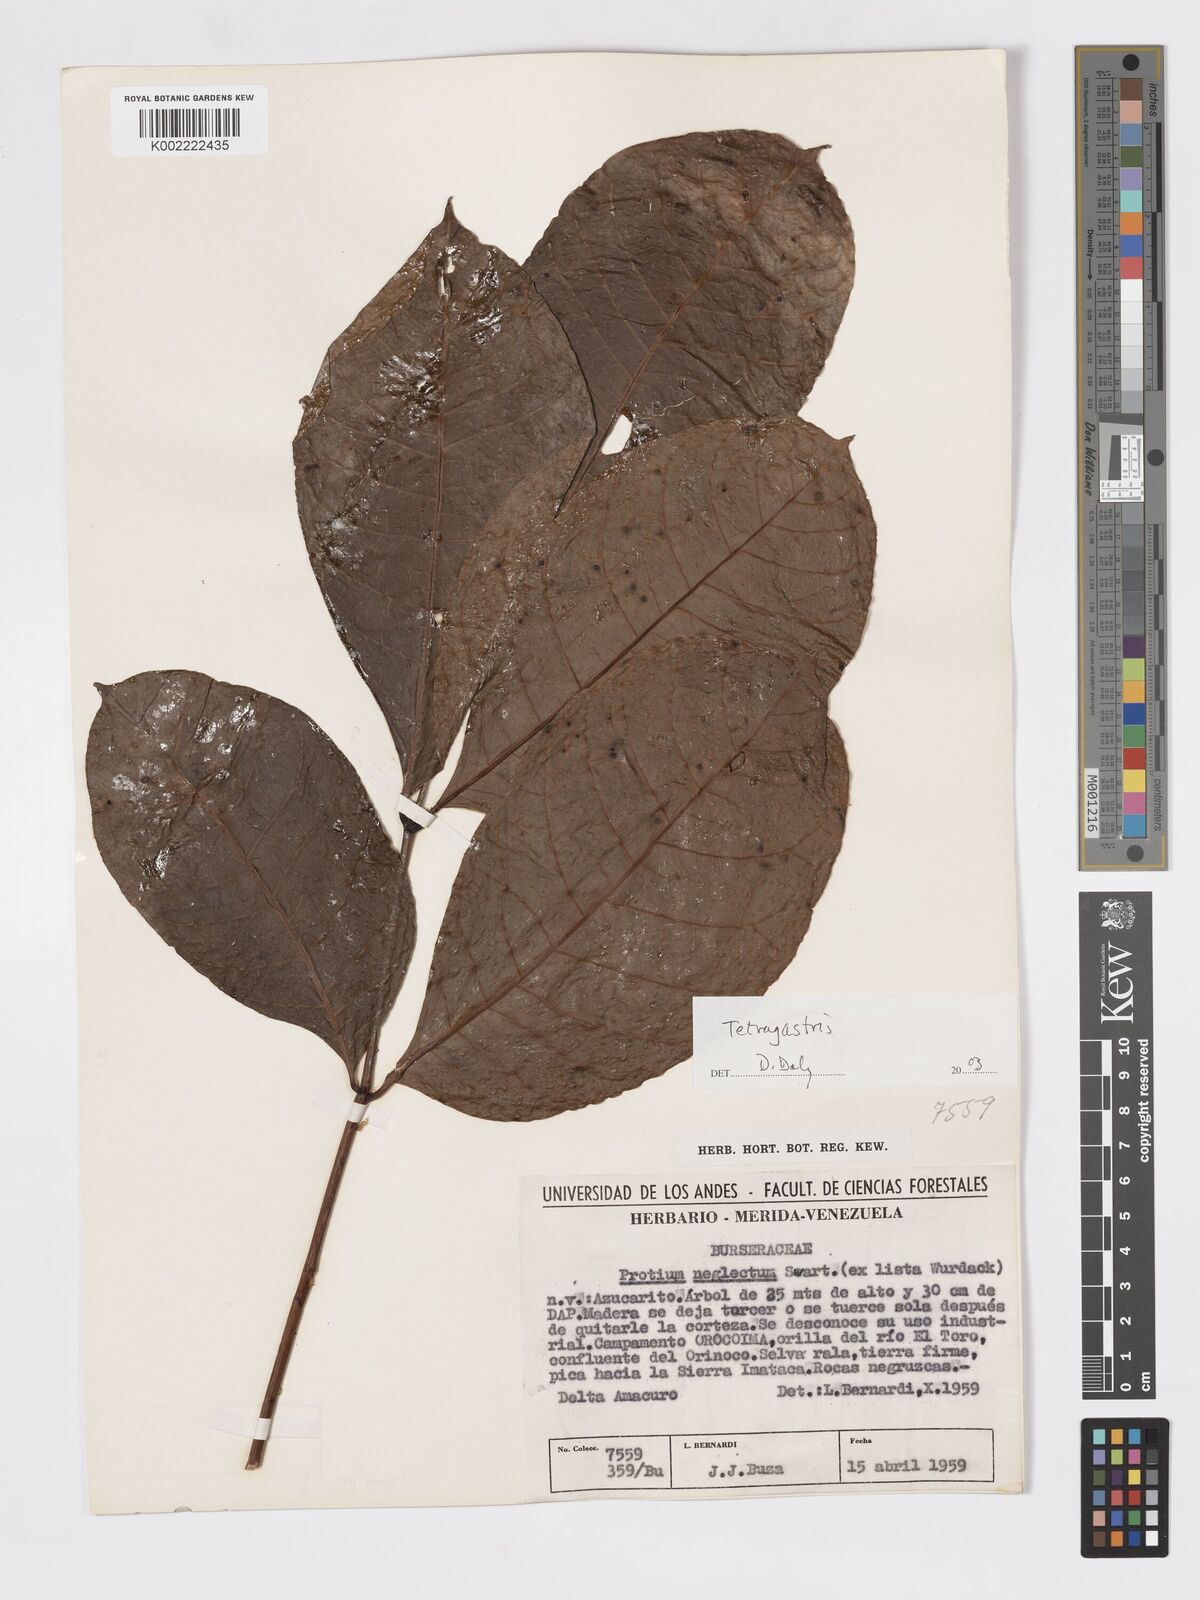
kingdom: Plantae
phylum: Tracheophyta
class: Magnoliopsida
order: Sapindales
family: Burseraceae
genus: Tetragastris
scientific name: Tetragastris
